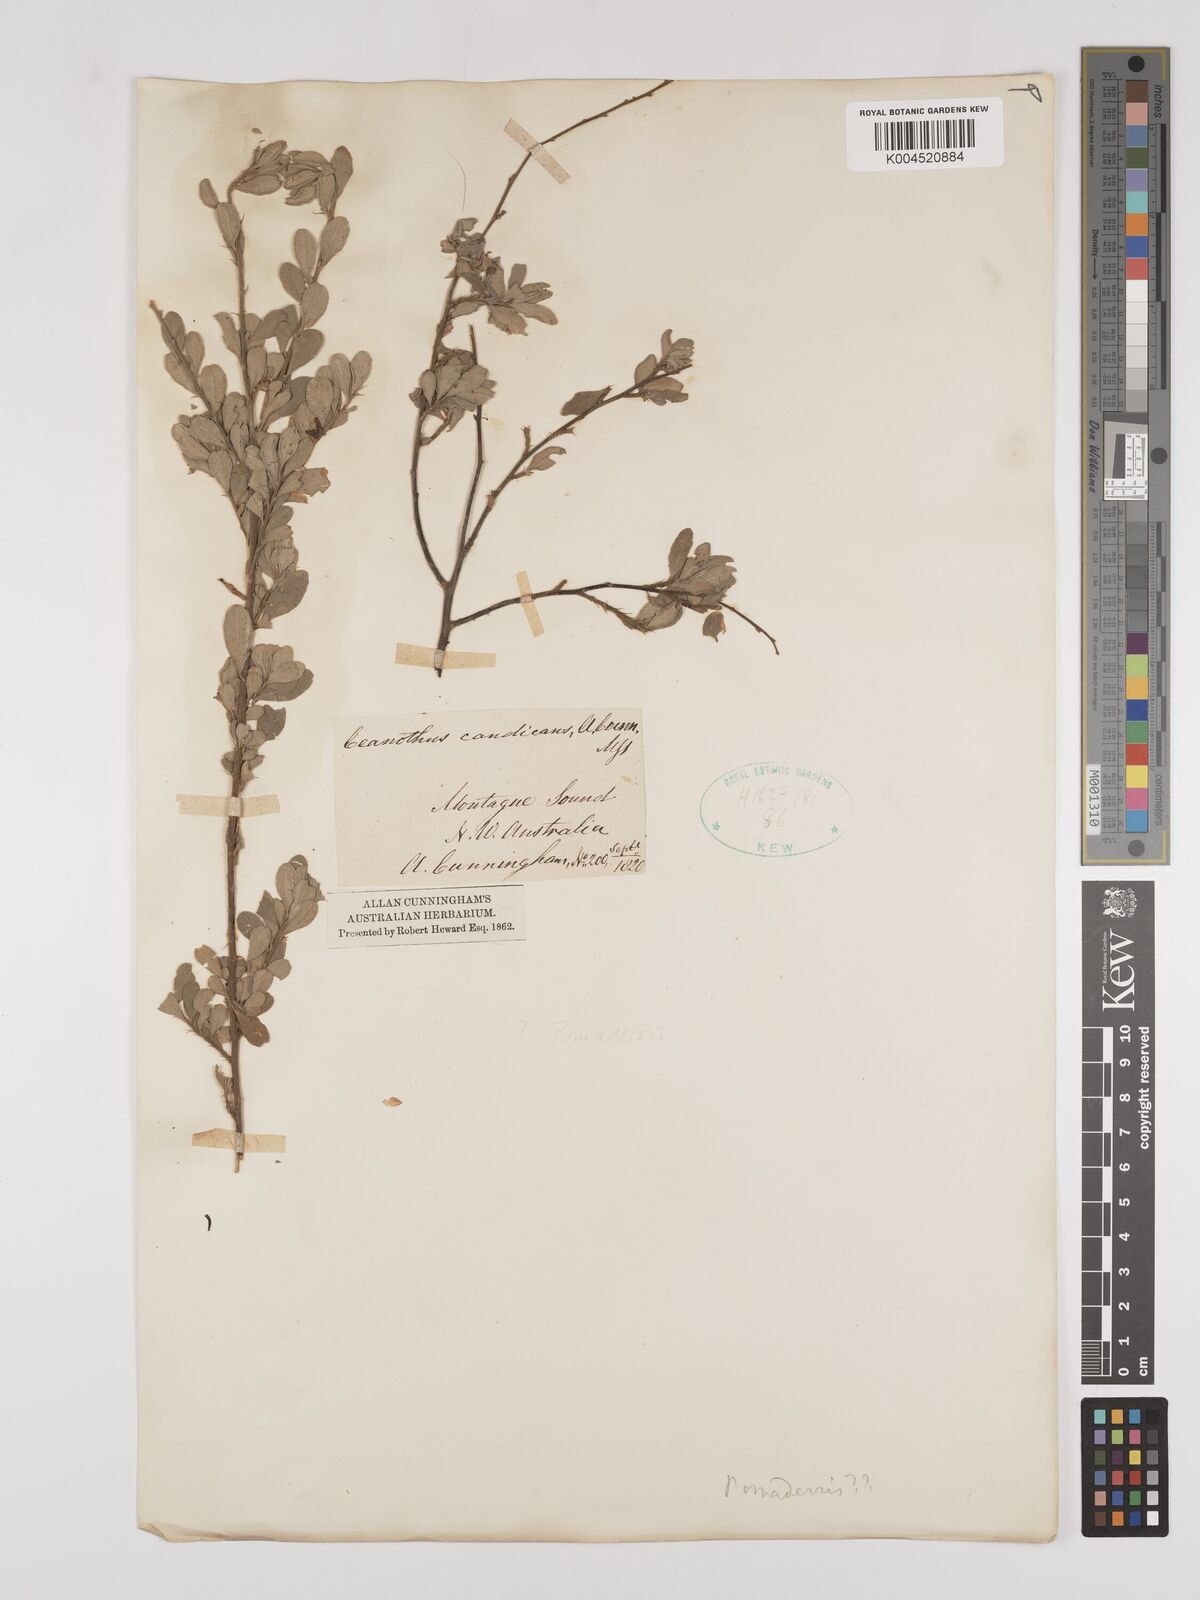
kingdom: Plantae
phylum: Tracheophyta
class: Magnoliopsida
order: Rosales
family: Rhamnaceae
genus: Pomaderris
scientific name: Pomaderris
